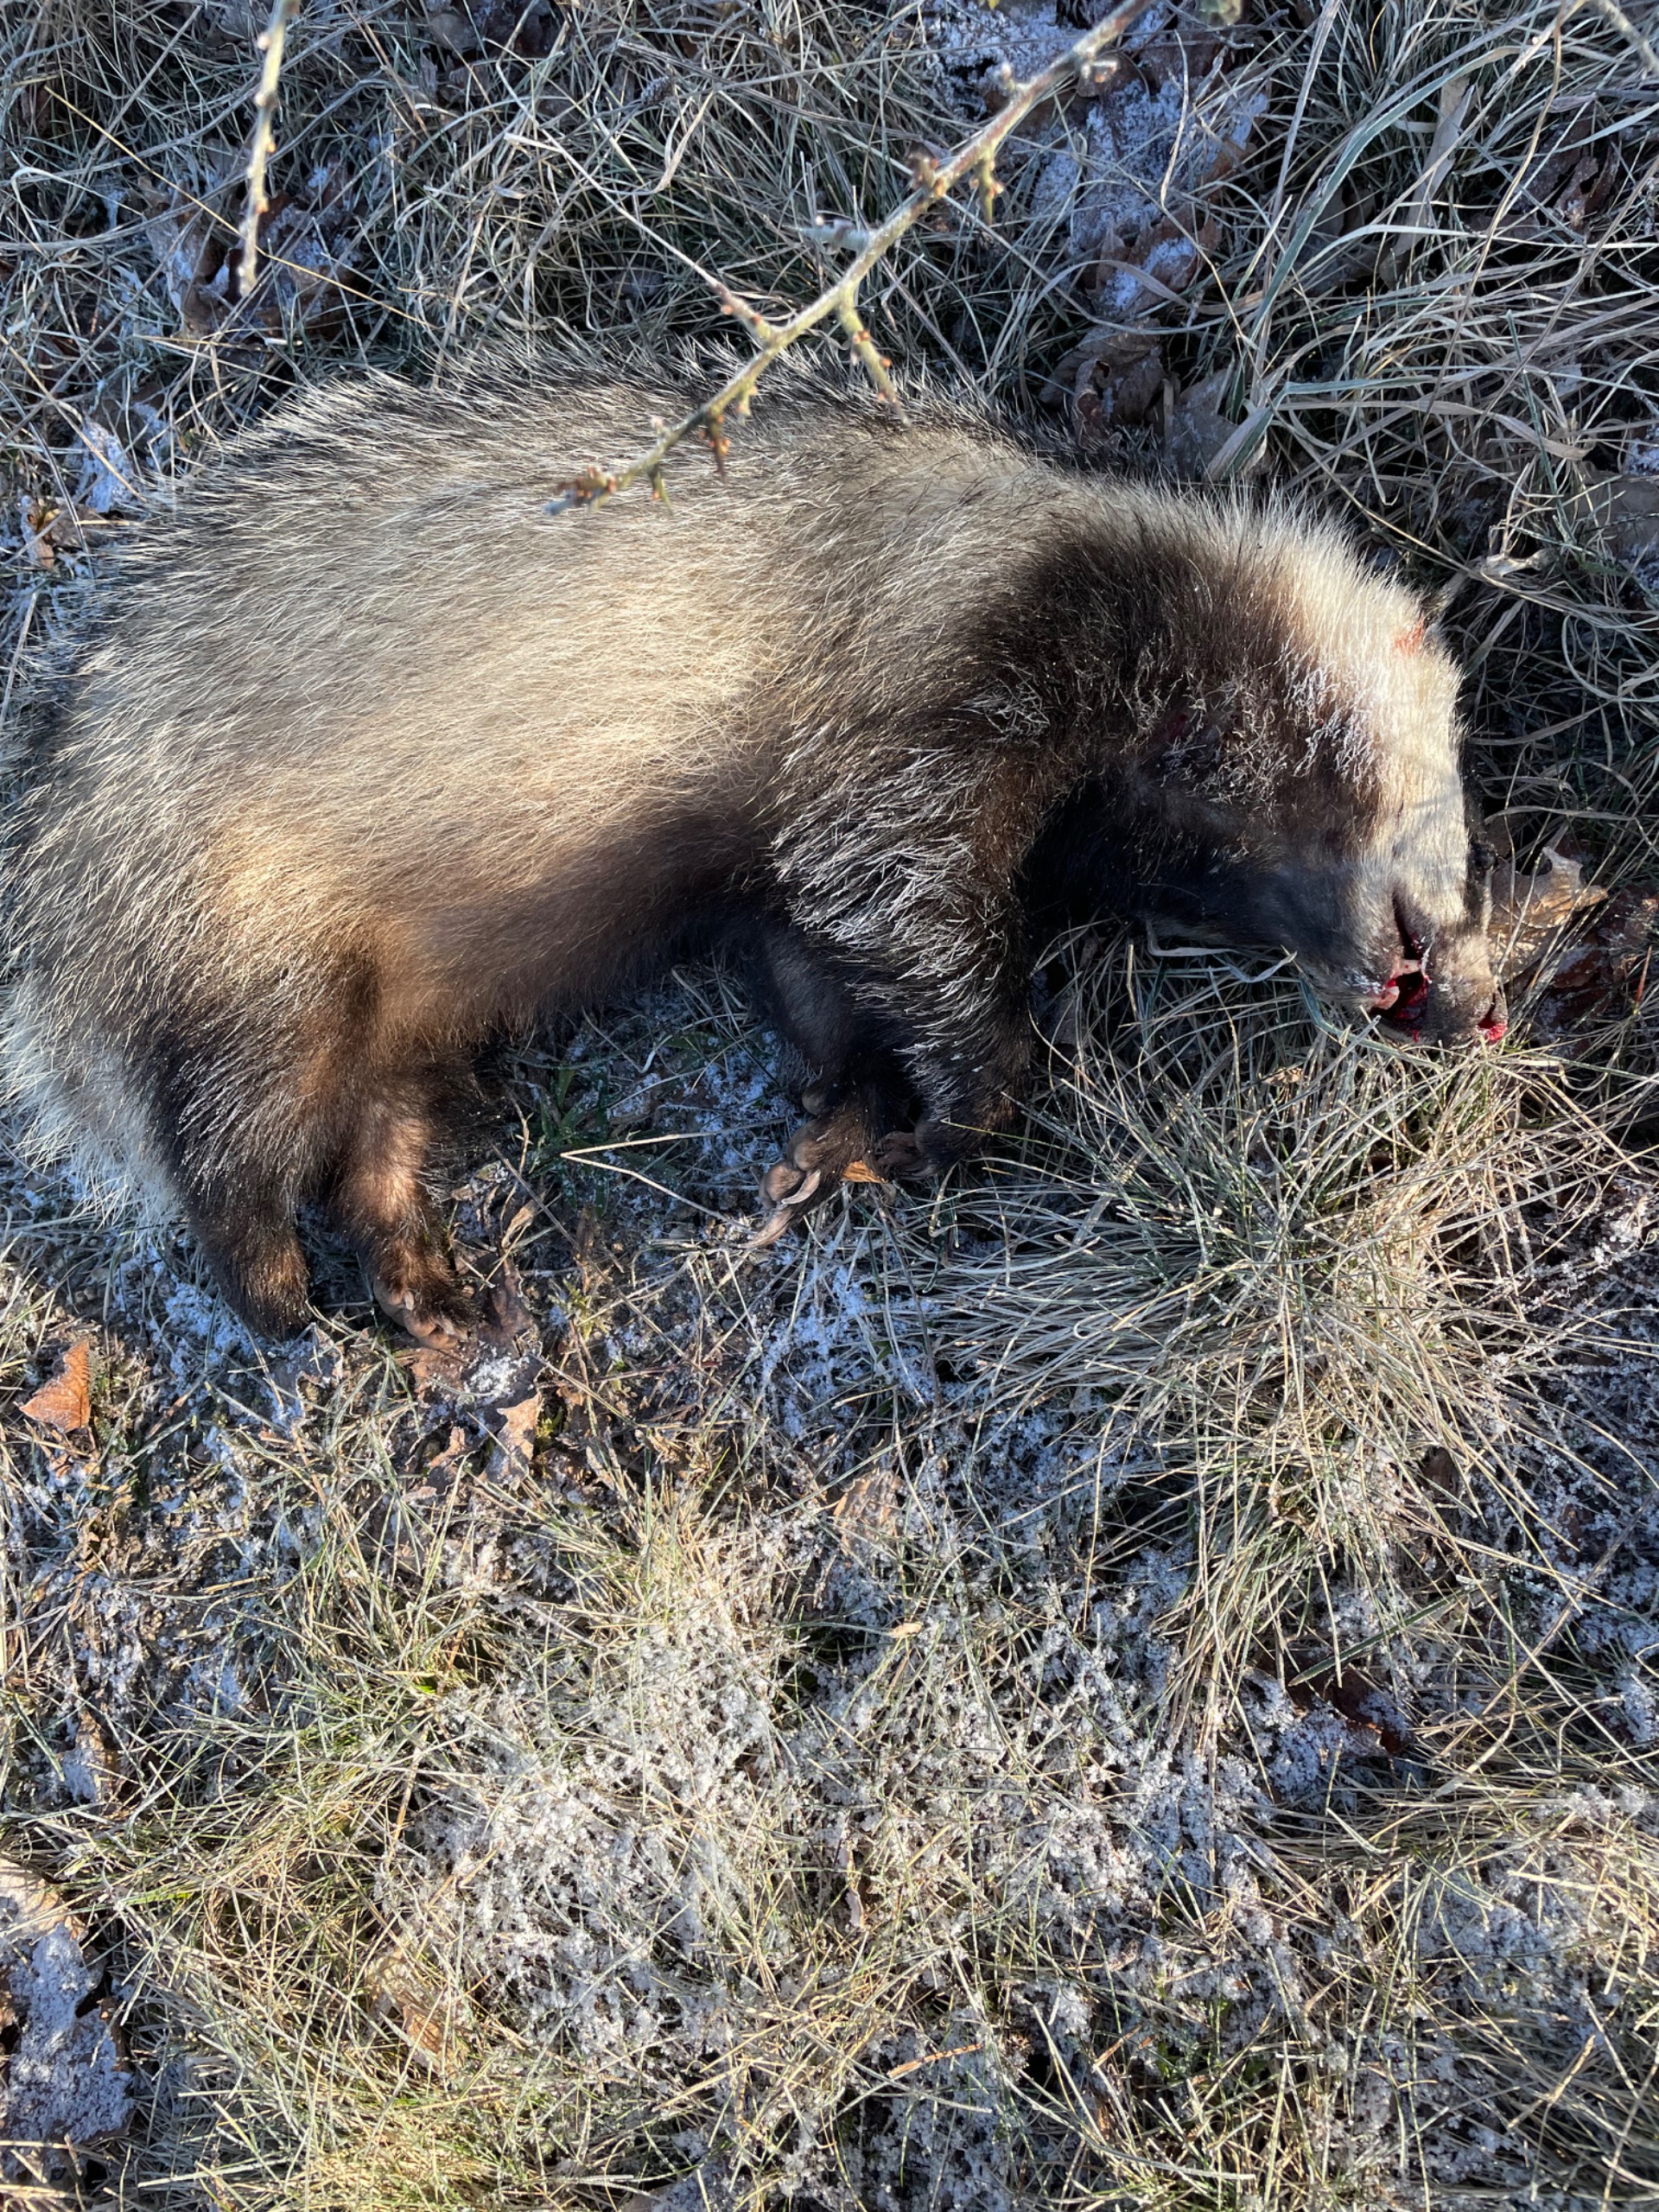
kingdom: Animalia
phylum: Chordata
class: Mammalia
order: Carnivora
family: Mustelidae
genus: Meles
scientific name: Meles meles
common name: Grævling
